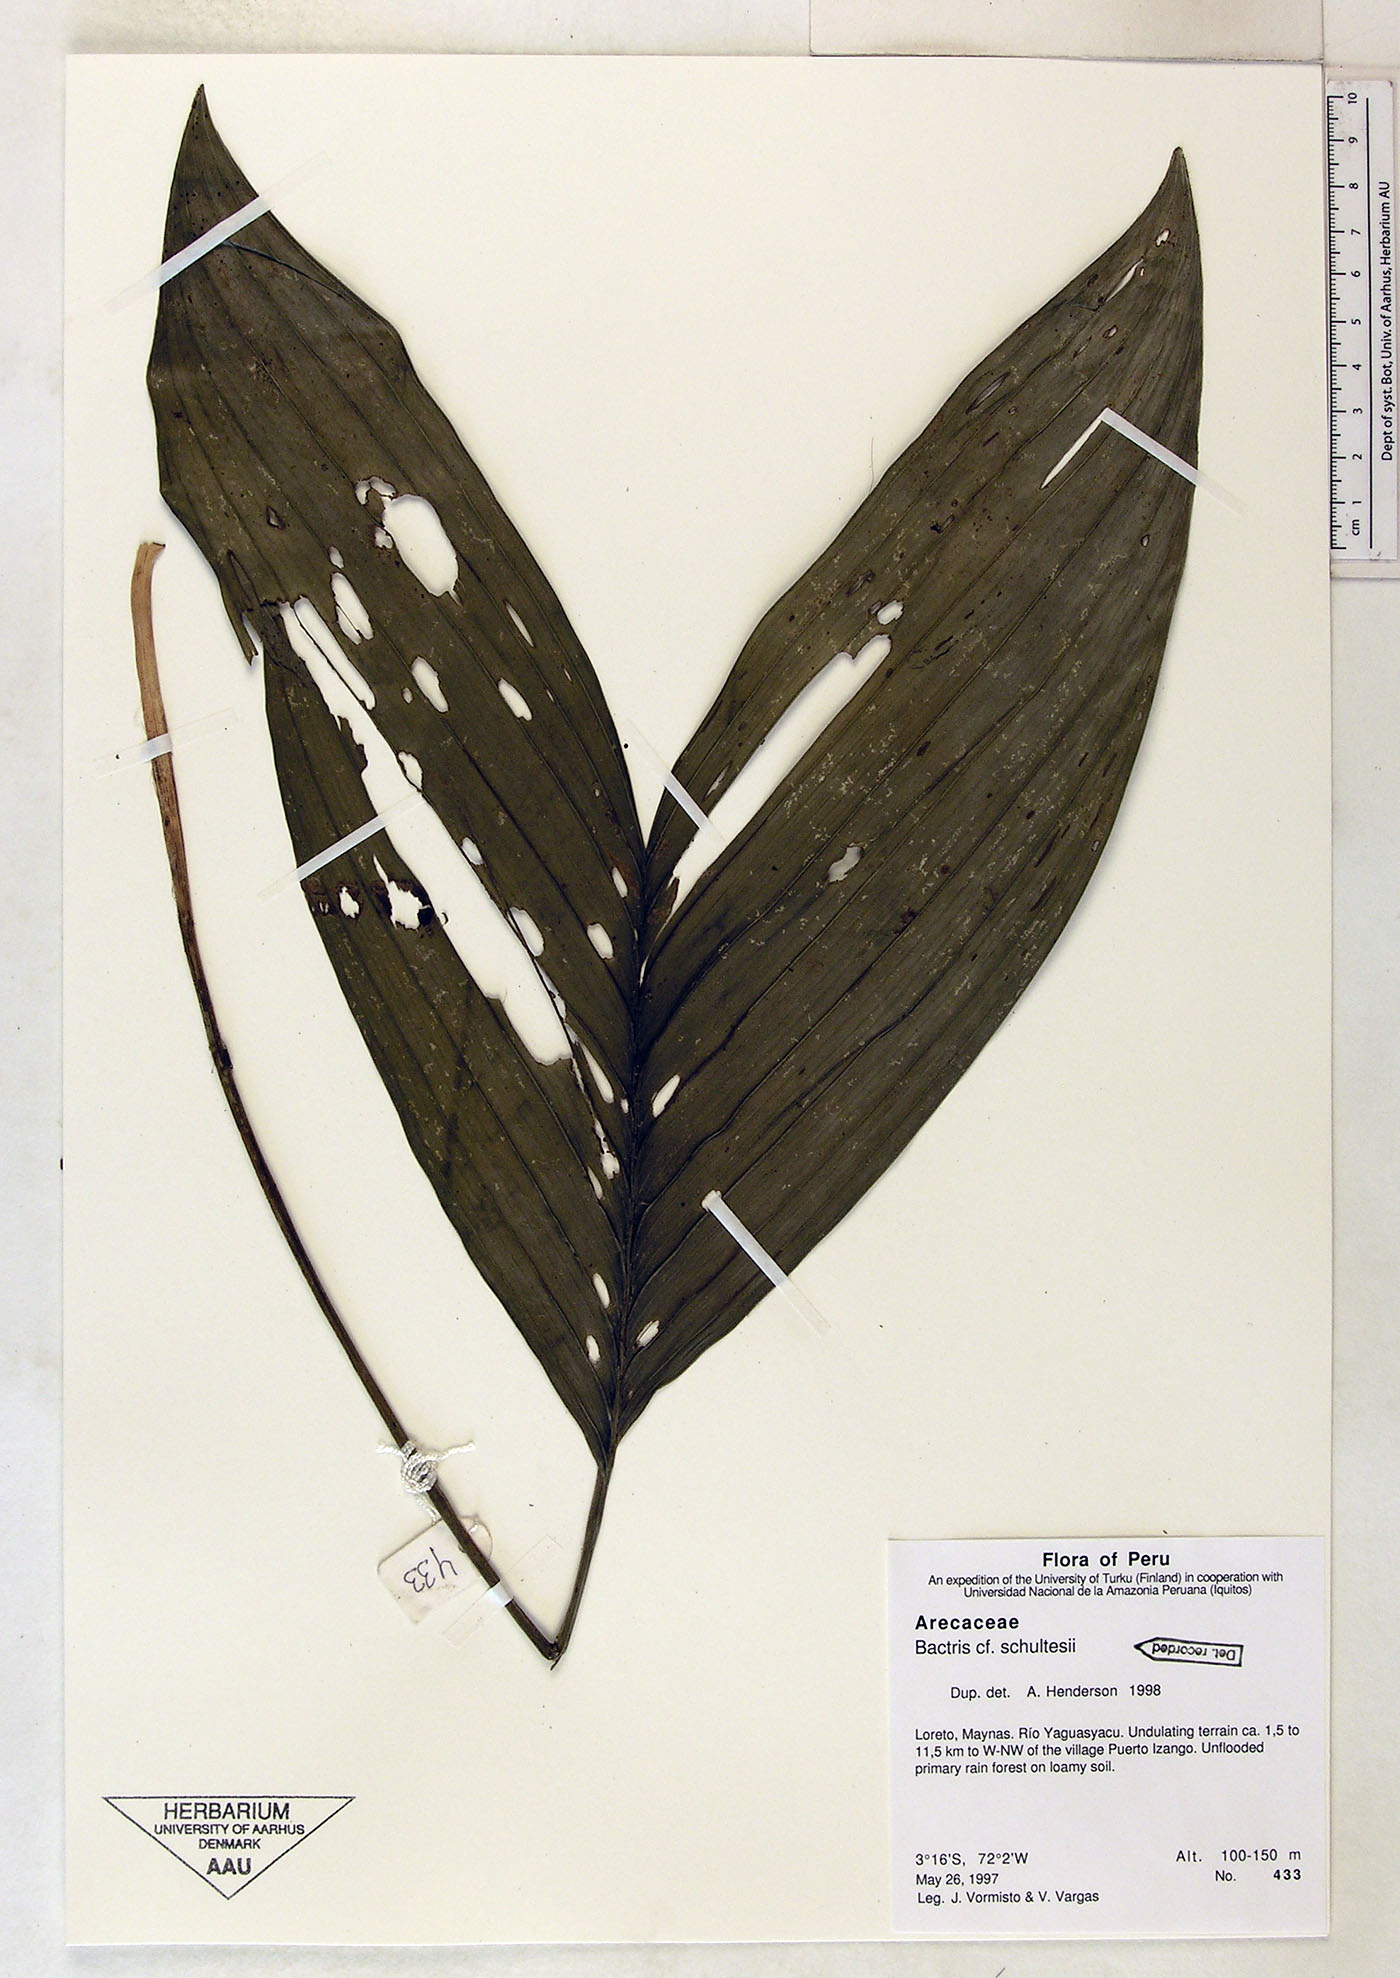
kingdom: Plantae
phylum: Tracheophyta
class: Liliopsida
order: Arecales
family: Arecaceae
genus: Bactris
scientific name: Bactris schultesii
